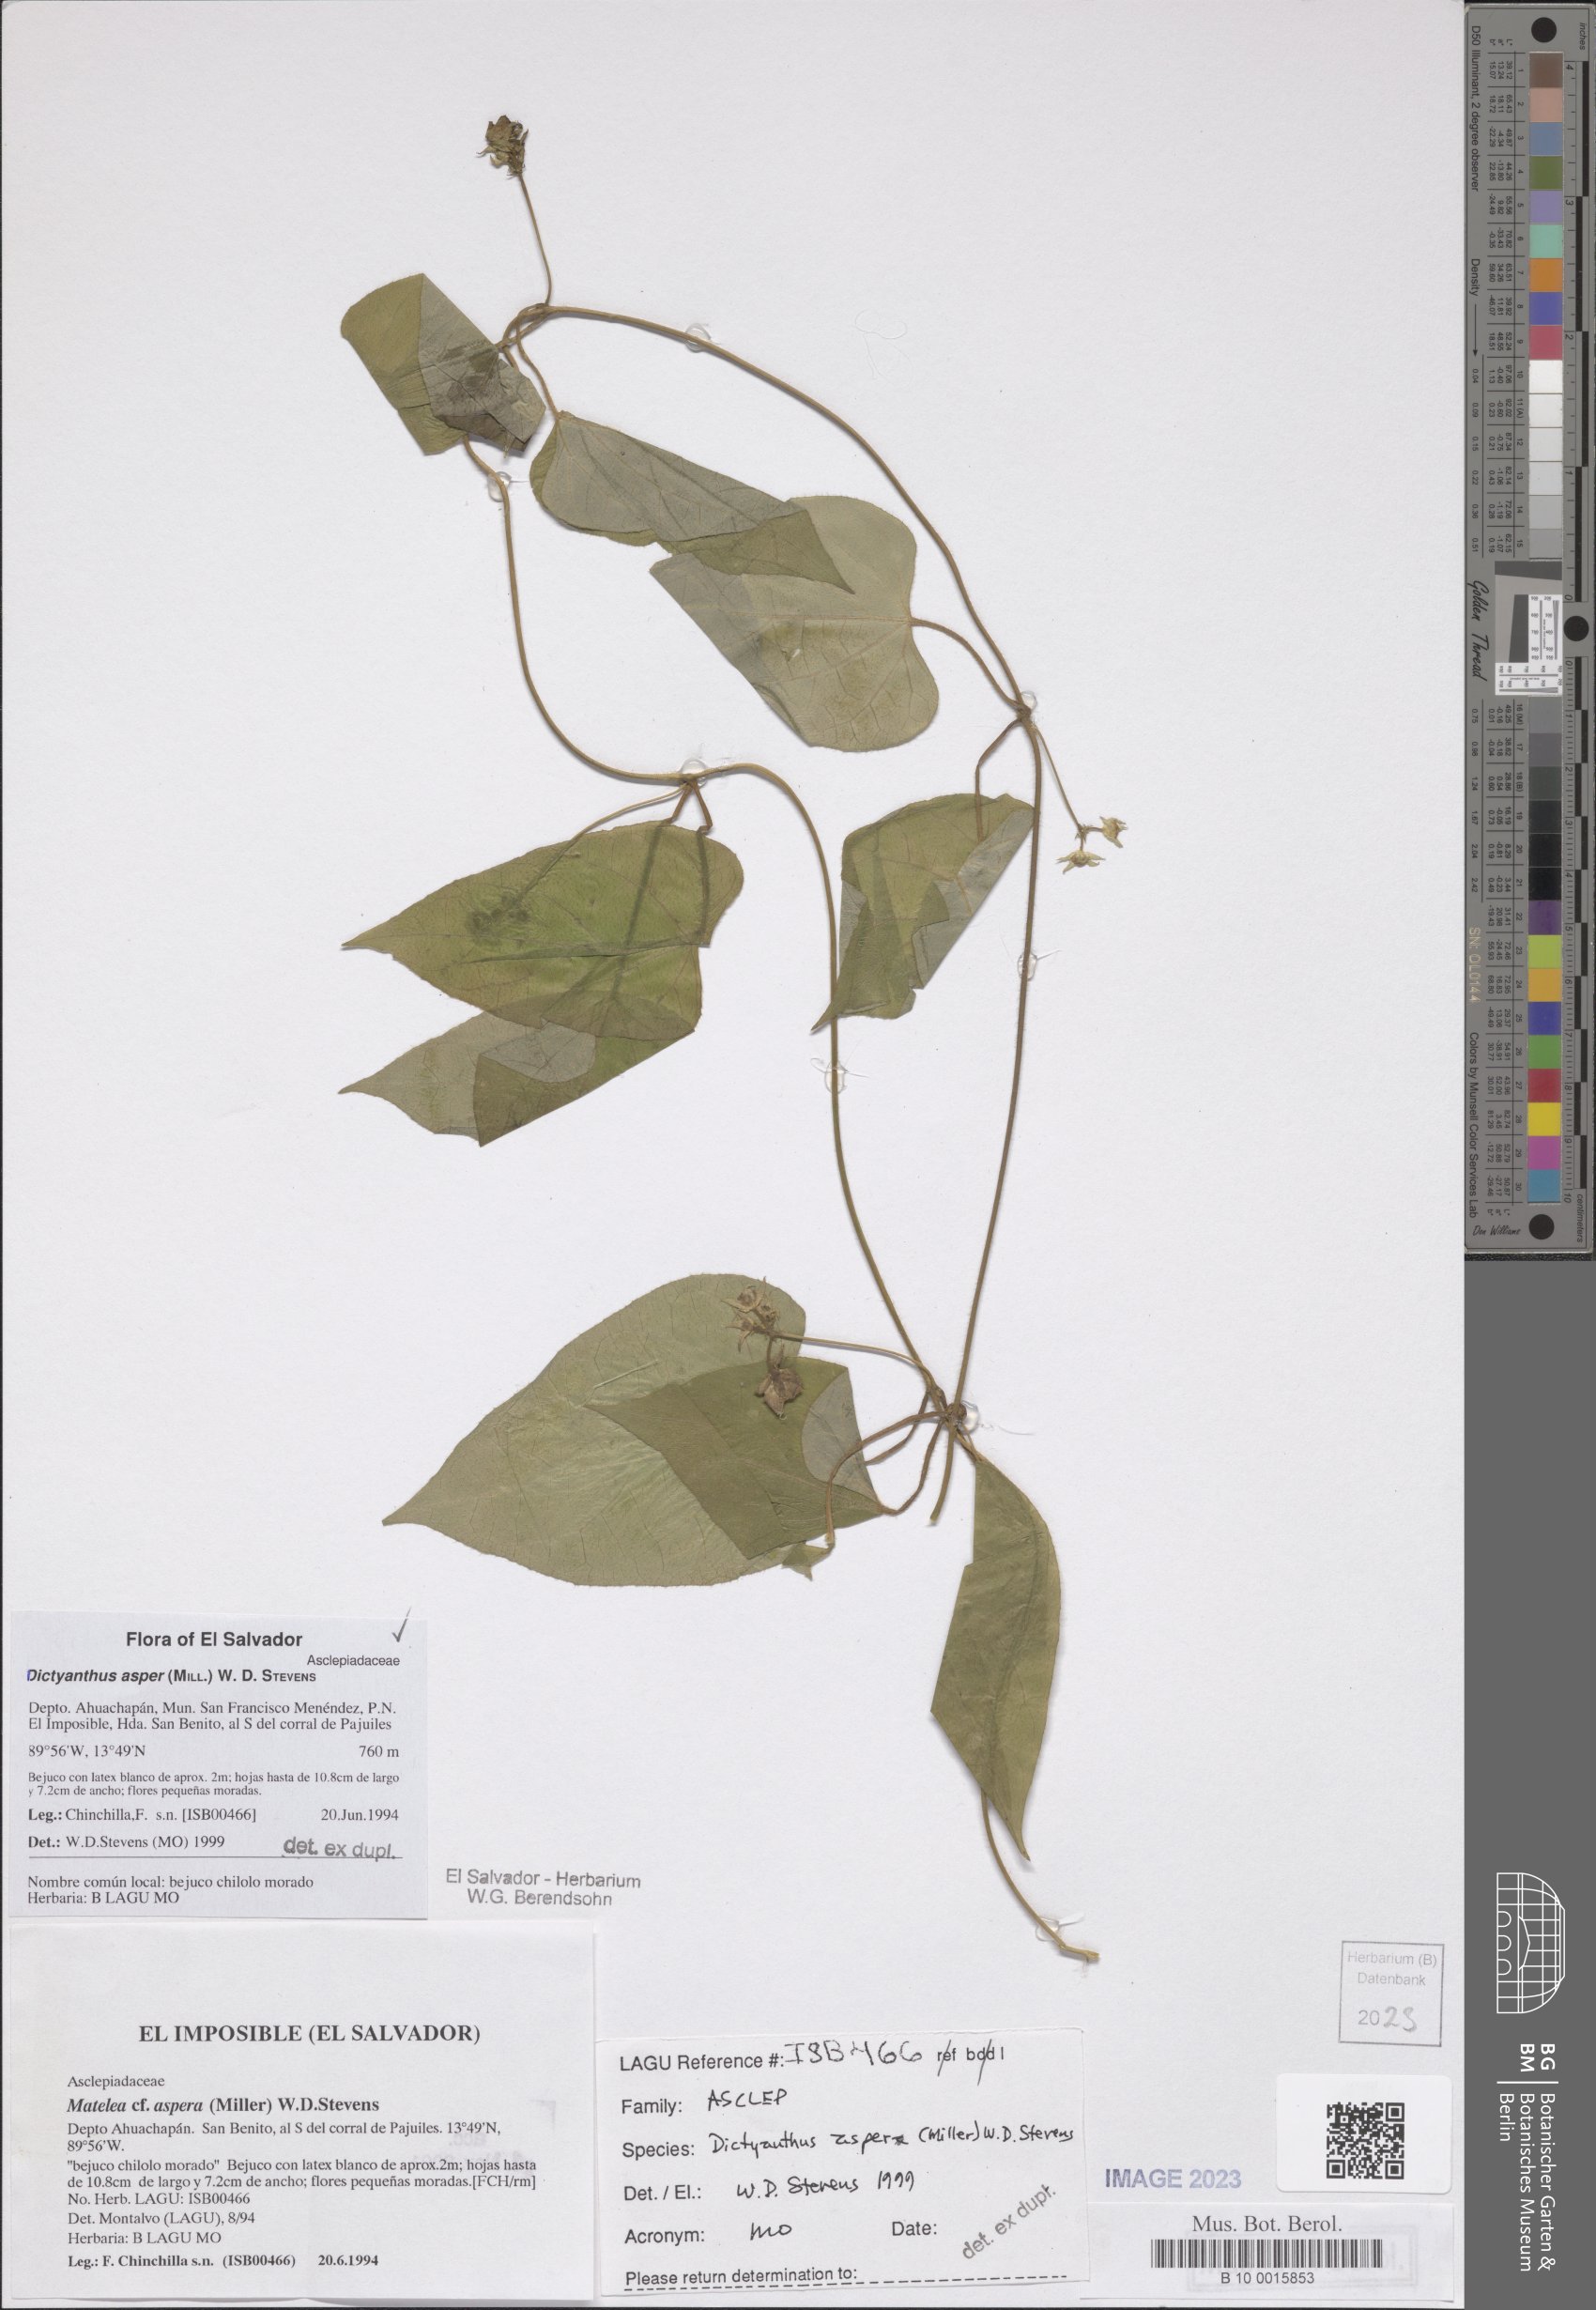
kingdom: Plantae
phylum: Tracheophyta
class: Magnoliopsida
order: Gentianales
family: Apocynaceae
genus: Dictyanthus
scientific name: Dictyanthus asper
